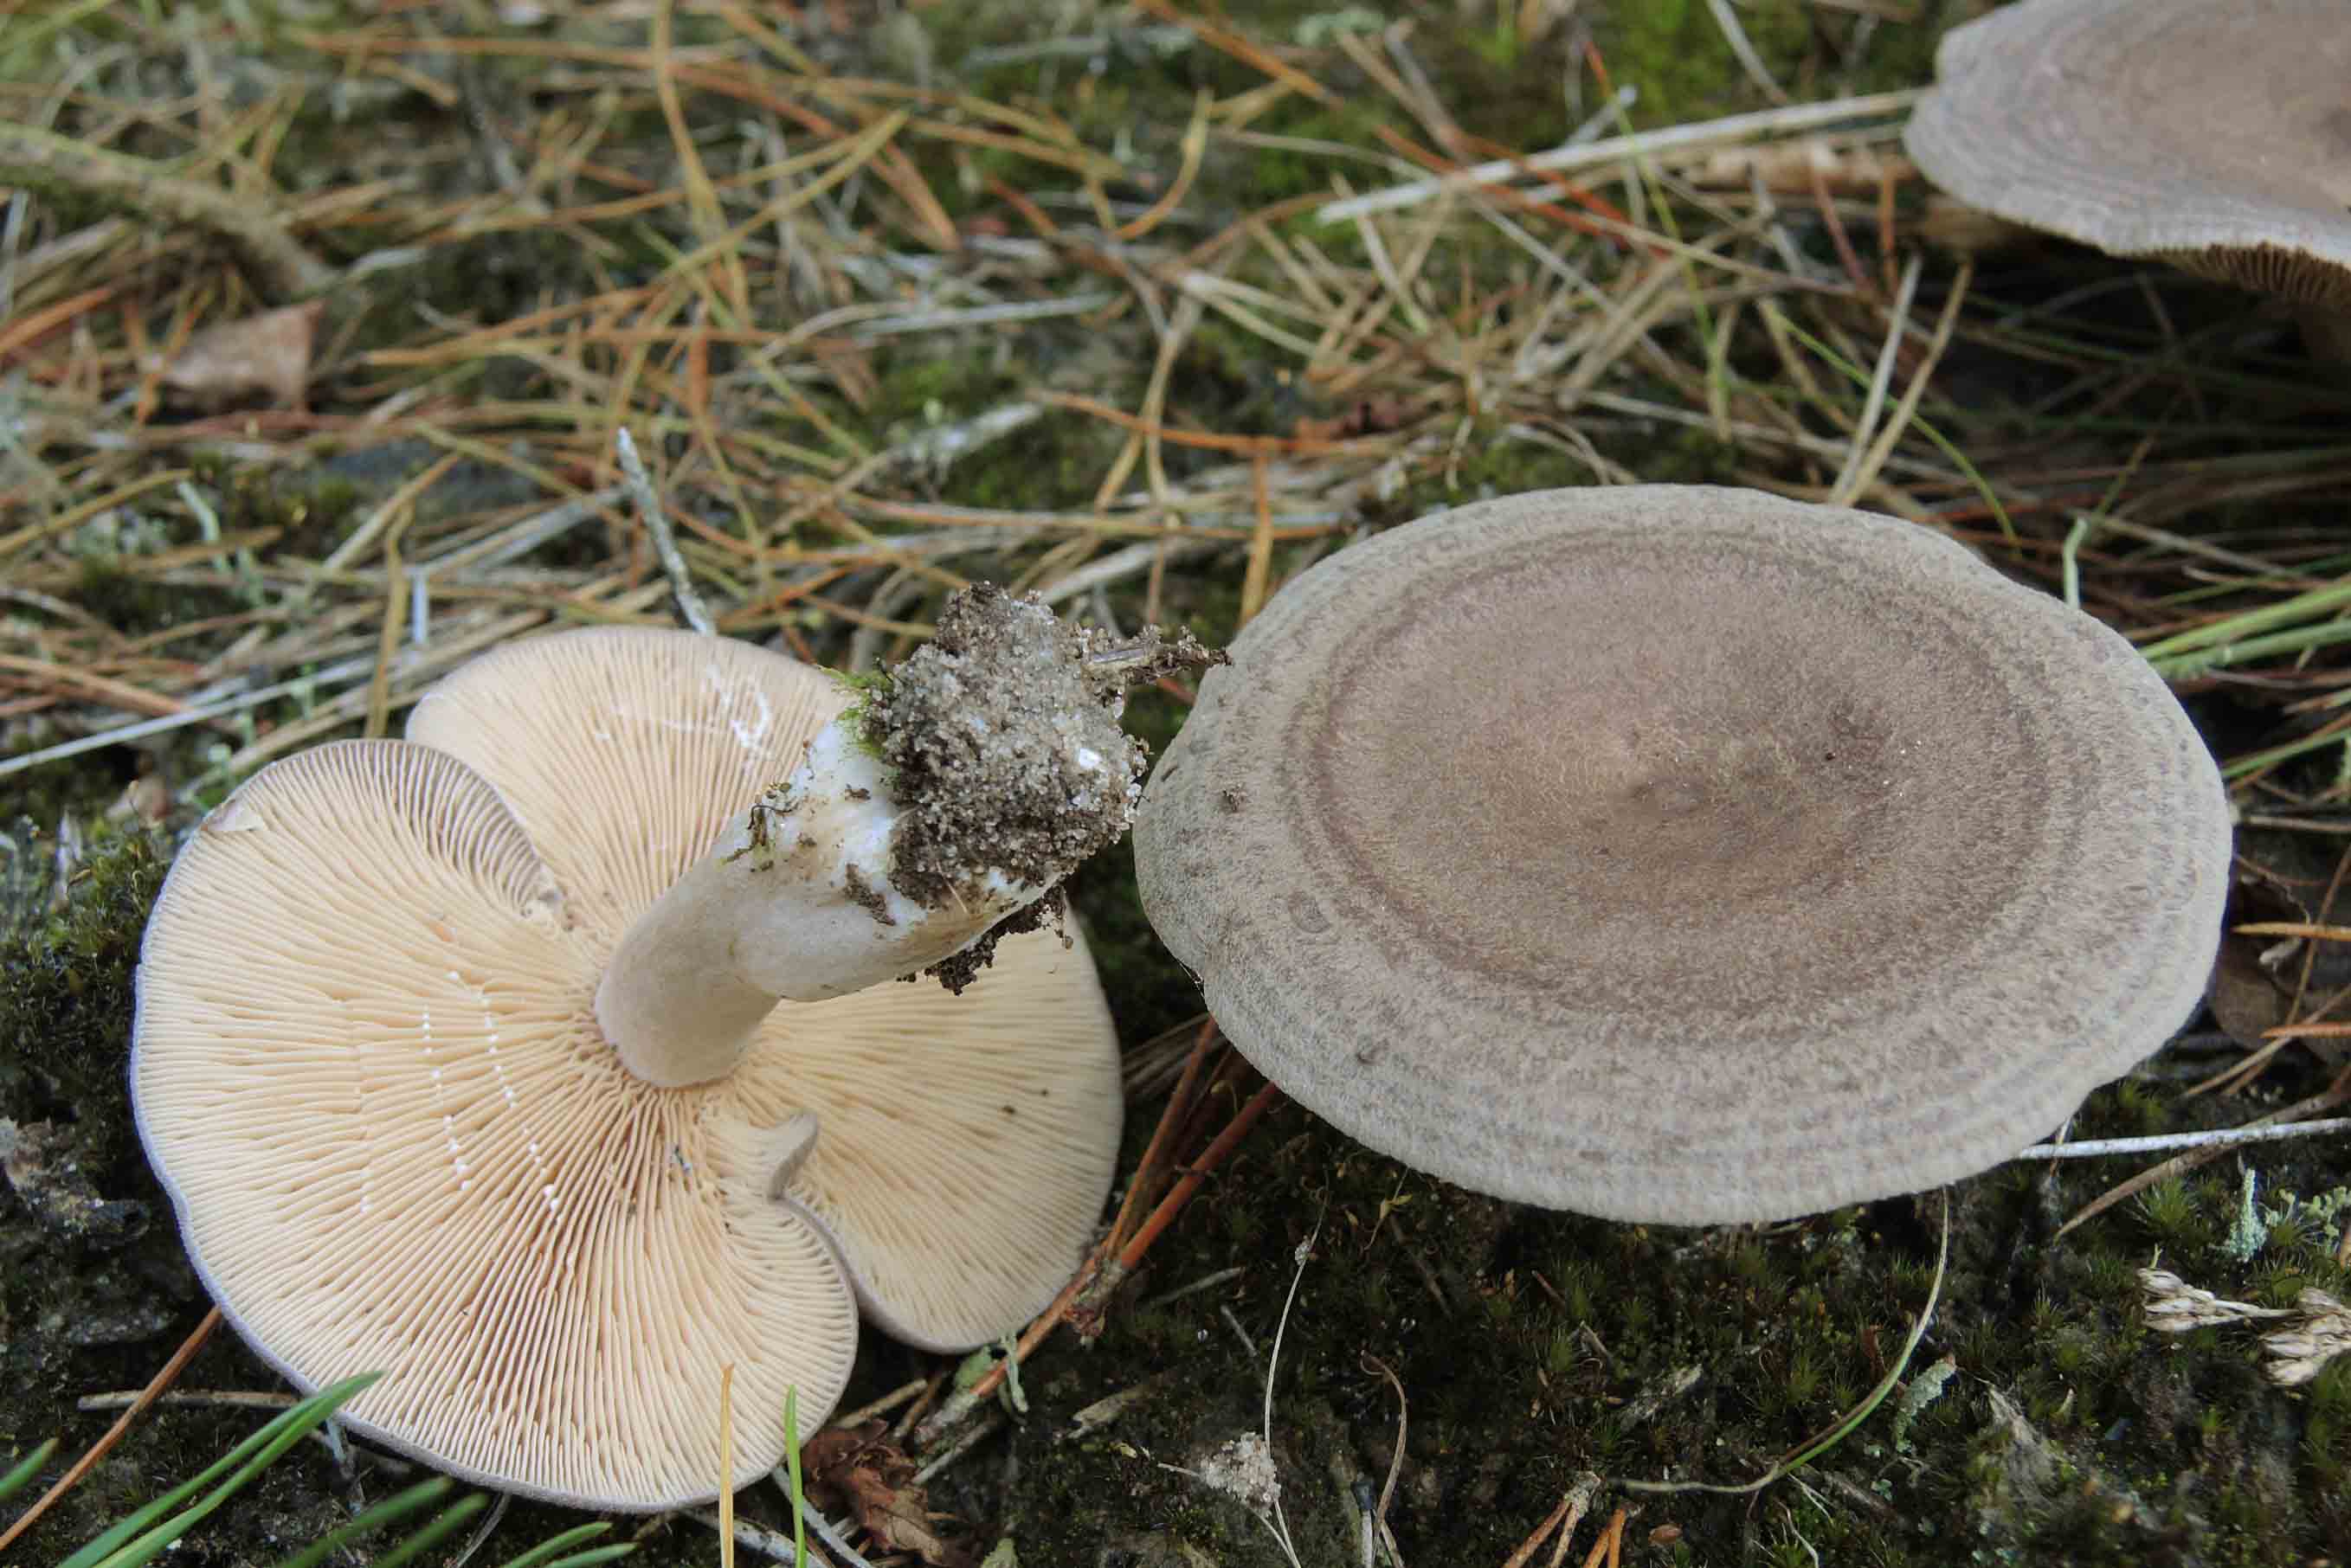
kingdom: Fungi
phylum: Basidiomycota
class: Agaricomycetes
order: Russulales
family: Russulaceae
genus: Lactarius
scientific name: Lactarius mammosus
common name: kokosbrun mælkehat
